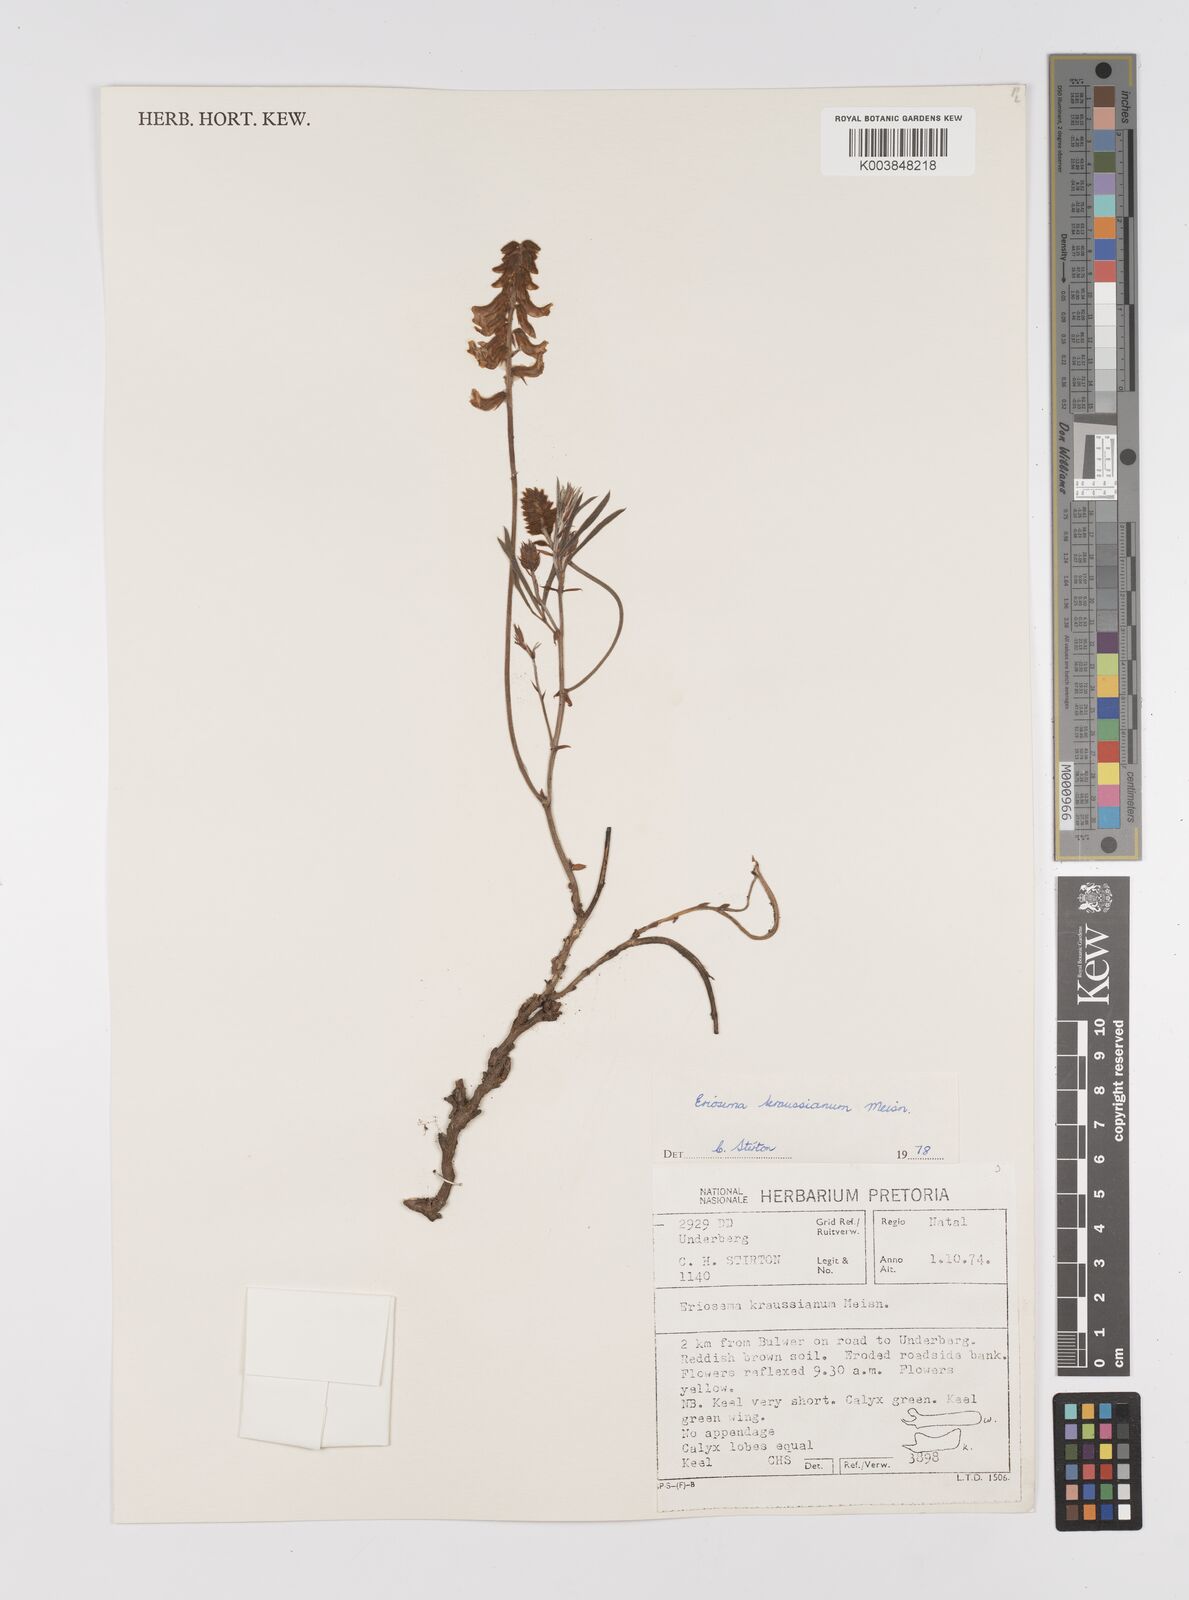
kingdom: Plantae
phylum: Tracheophyta
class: Magnoliopsida
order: Fabales
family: Fabaceae
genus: Eriosema
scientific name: Eriosema kraussianum
